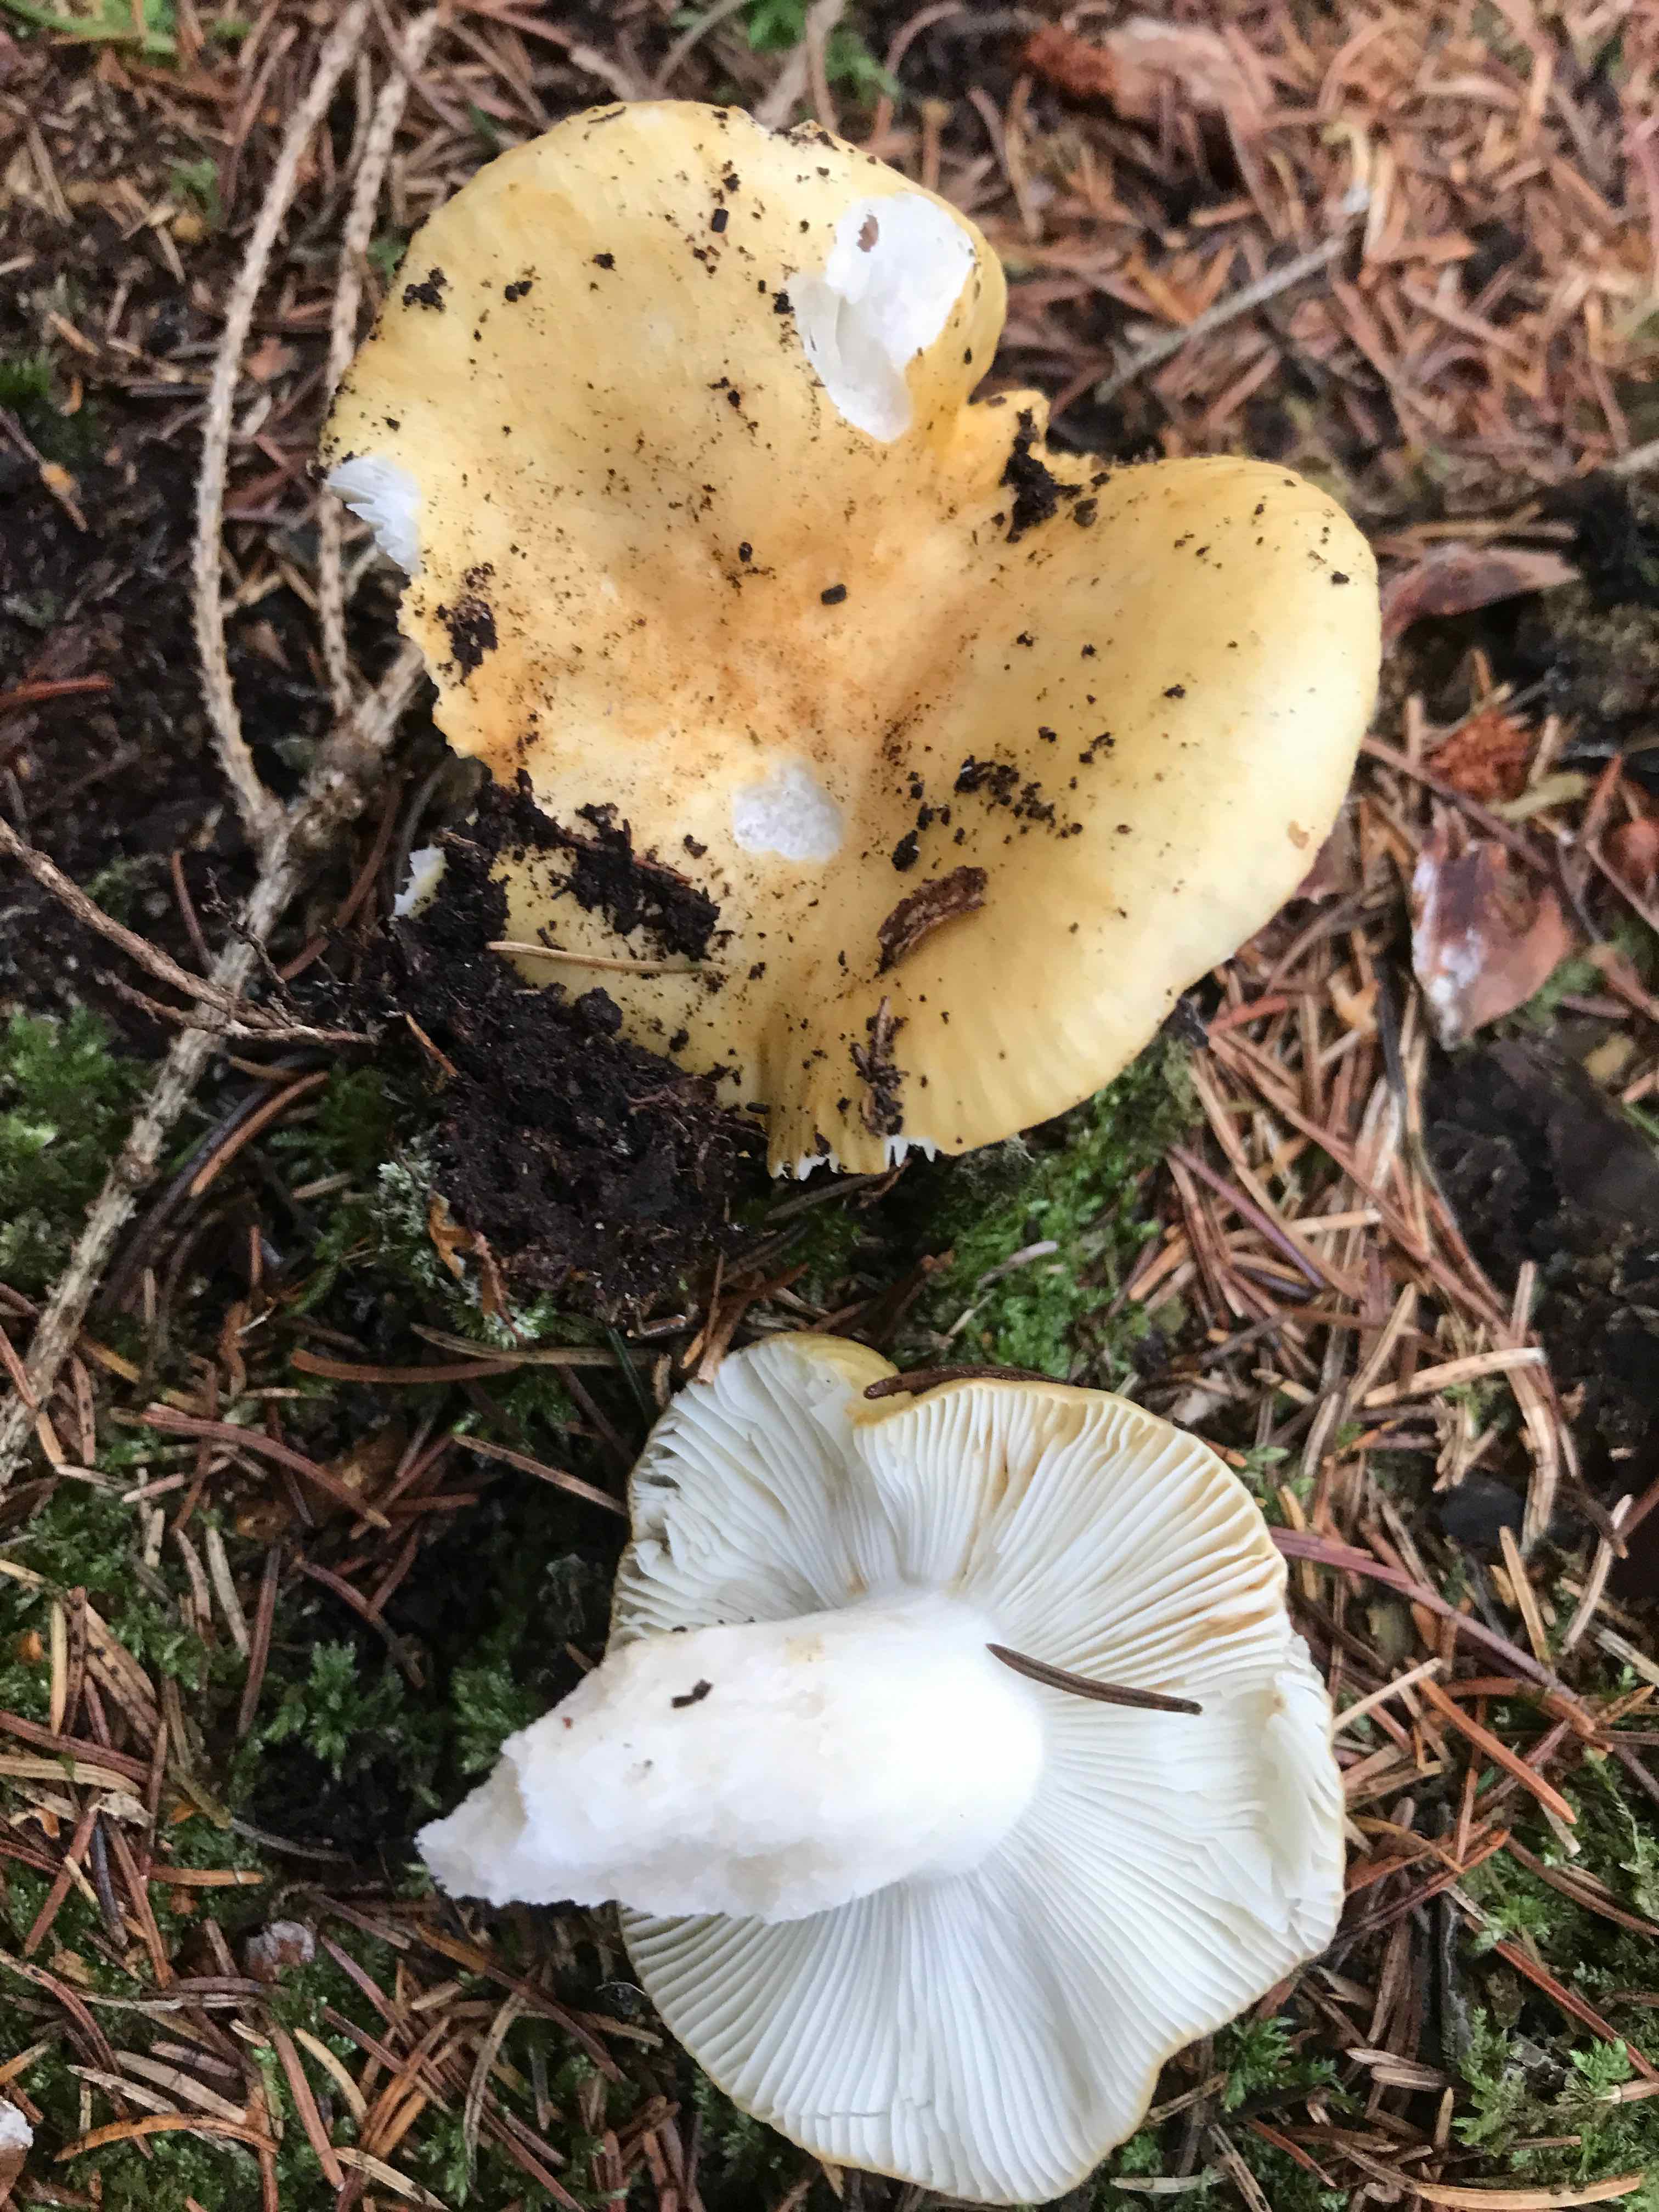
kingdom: Fungi
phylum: Basidiomycota
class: Agaricomycetes
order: Russulales
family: Russulaceae
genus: Russula
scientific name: Russula ochroleuca
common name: okkergul skørhat
